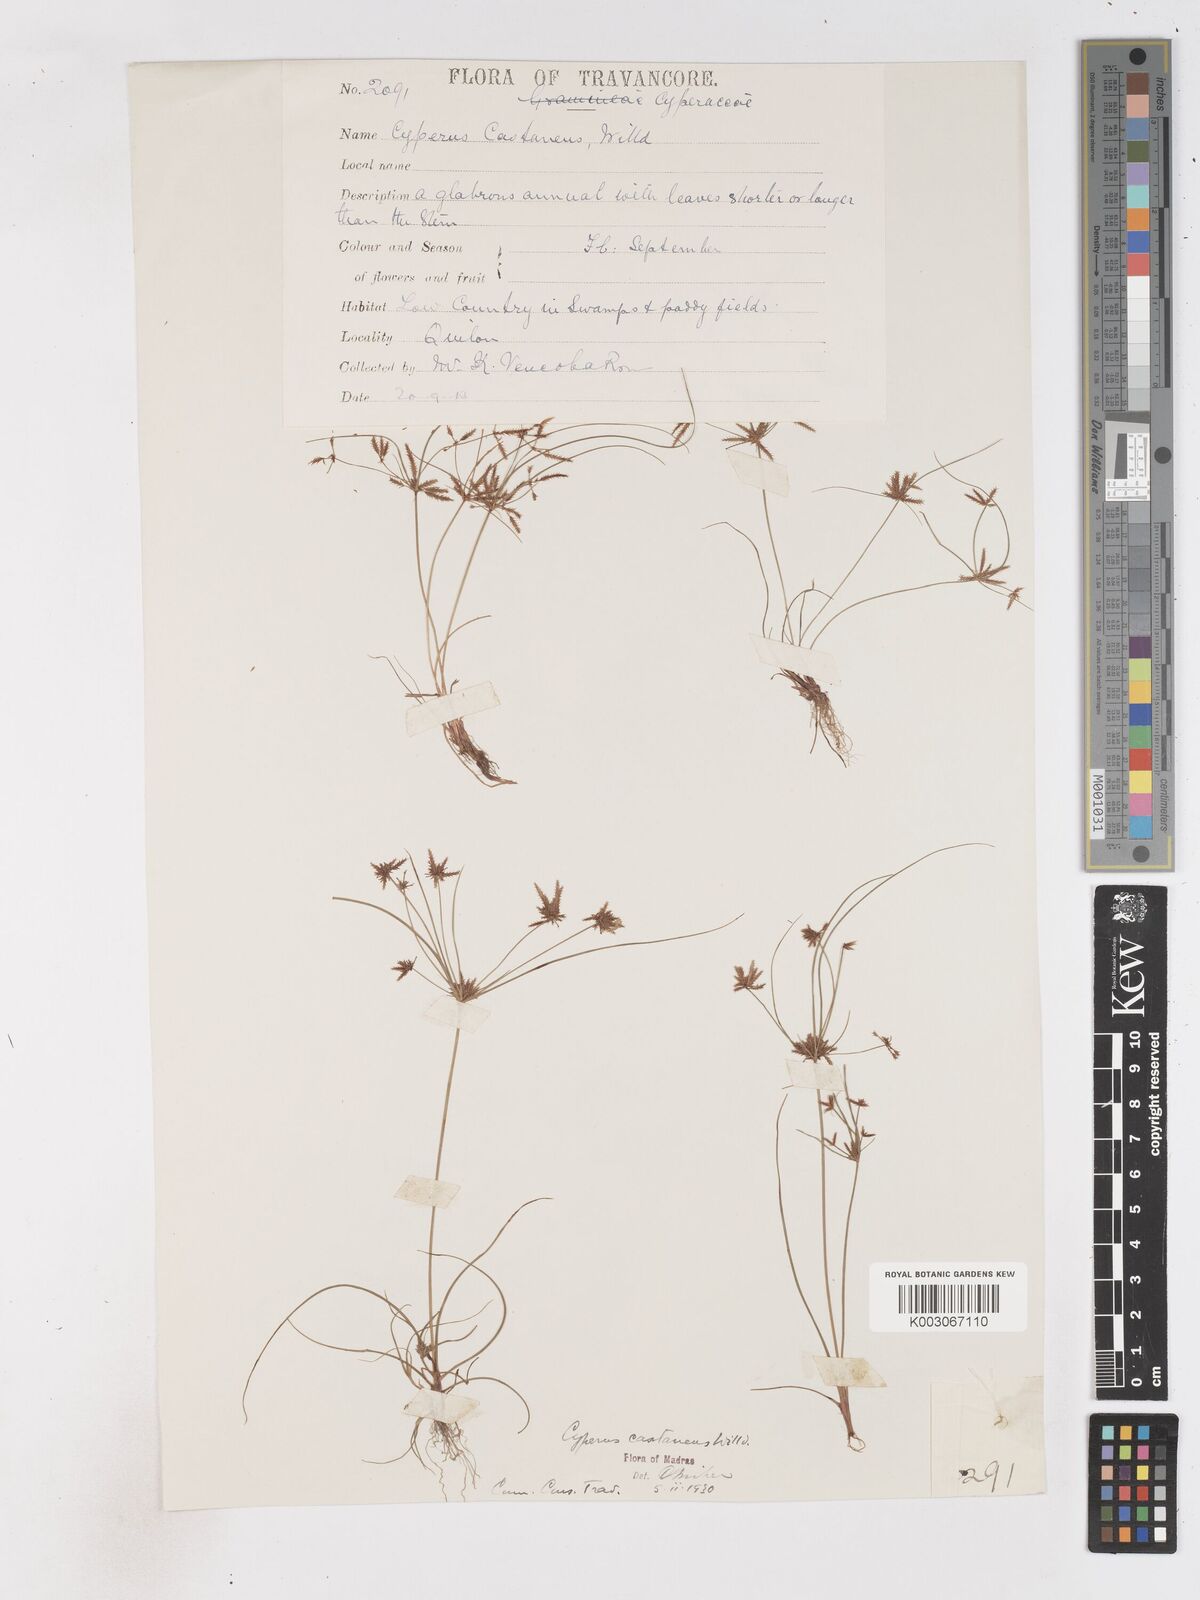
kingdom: Plantae
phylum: Tracheophyta
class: Liliopsida
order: Poales
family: Cyperaceae
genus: Cyperus
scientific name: Cyperus cuspidatus
